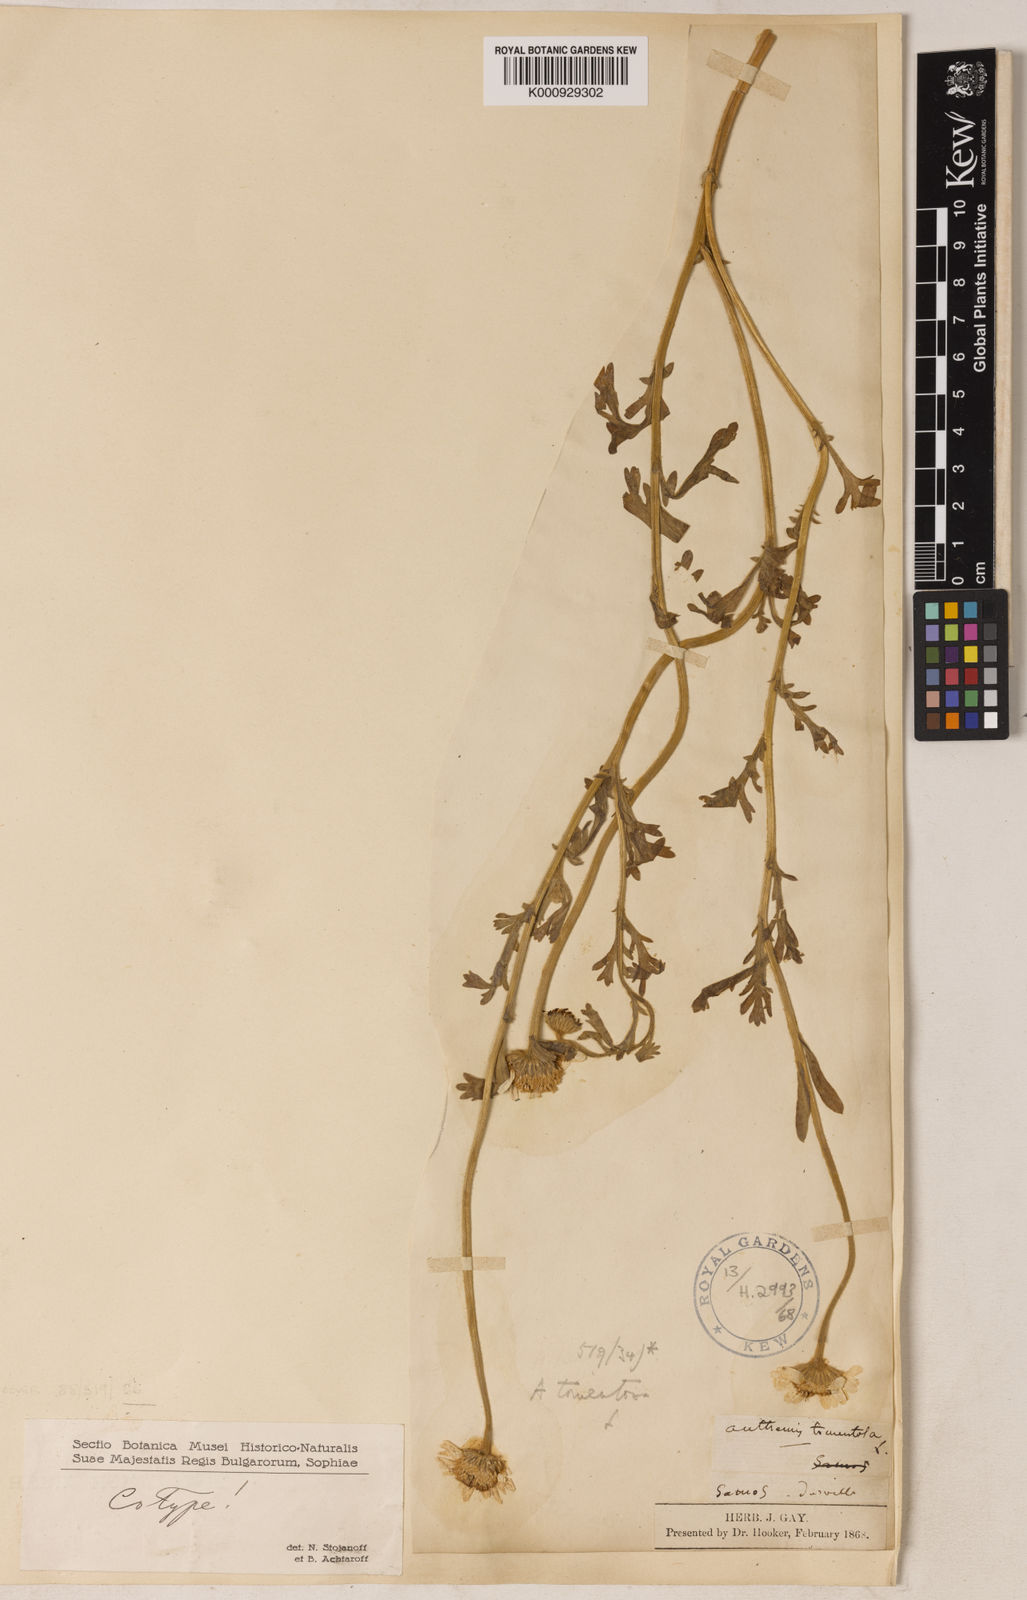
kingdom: Plantae
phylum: Tracheophyta
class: Magnoliopsida
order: Asterales
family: Asteraceae
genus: Anthemis
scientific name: Anthemis tomentosa
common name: Woolly chamomile
